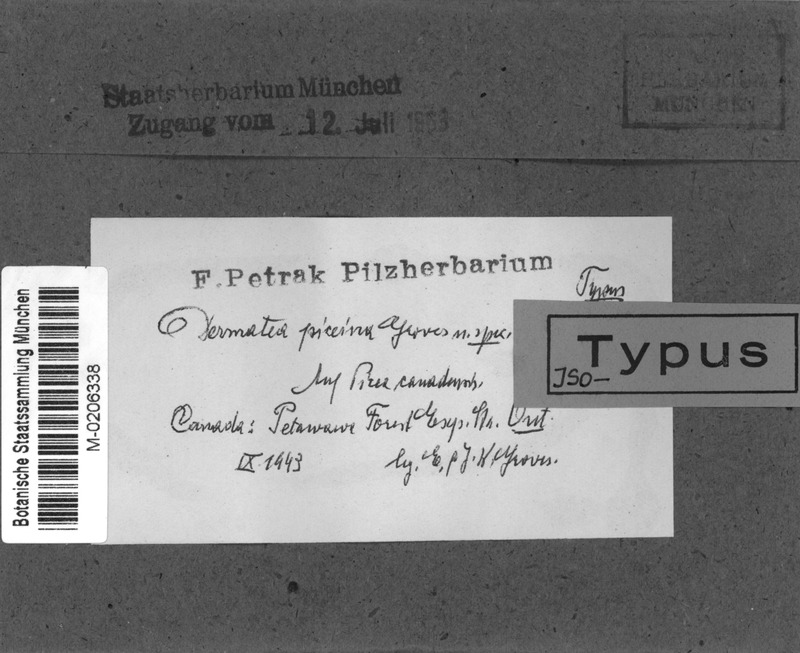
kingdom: Fungi
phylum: Ascomycota
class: Leotiomycetes
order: Helotiales
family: Dermateaceae
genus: Dermea
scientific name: Dermea piceina
